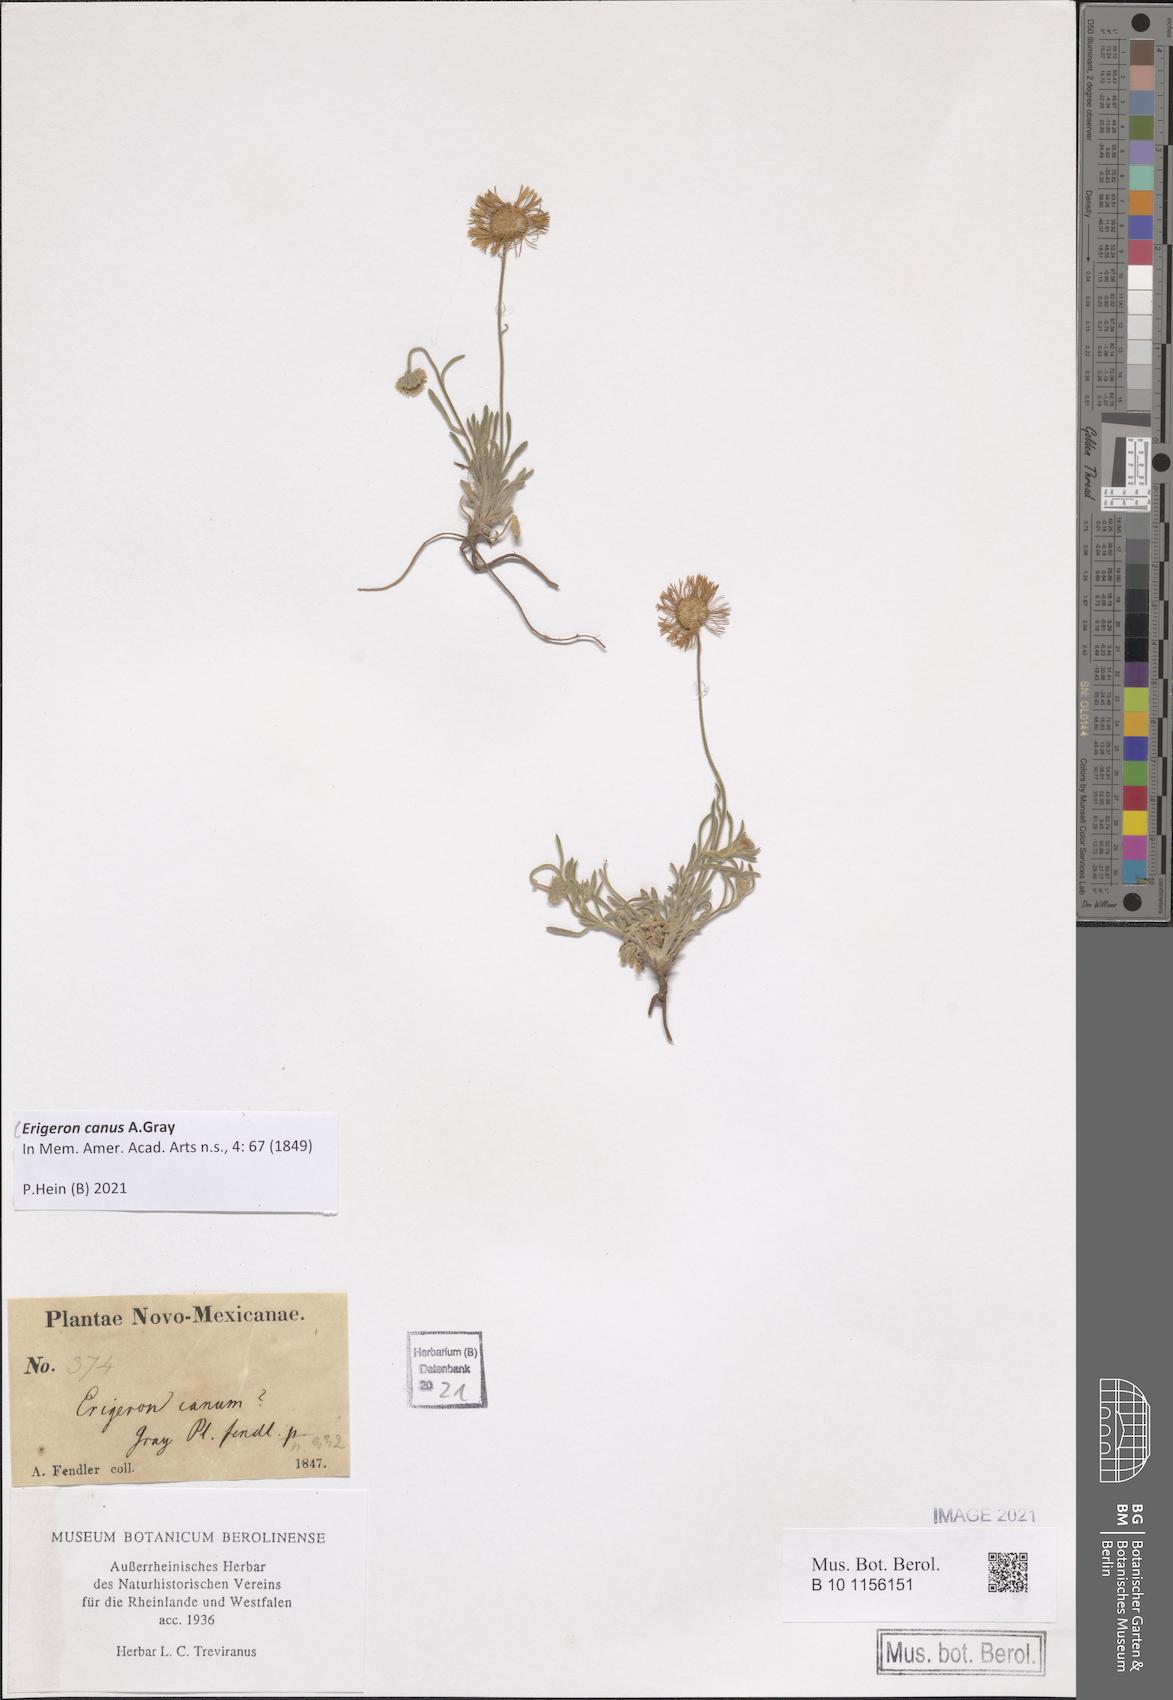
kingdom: Plantae
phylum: Tracheophyta
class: Magnoliopsida
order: Asterales
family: Asteraceae
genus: Erigeron
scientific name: Erigeron canus
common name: Hoary fleabane
